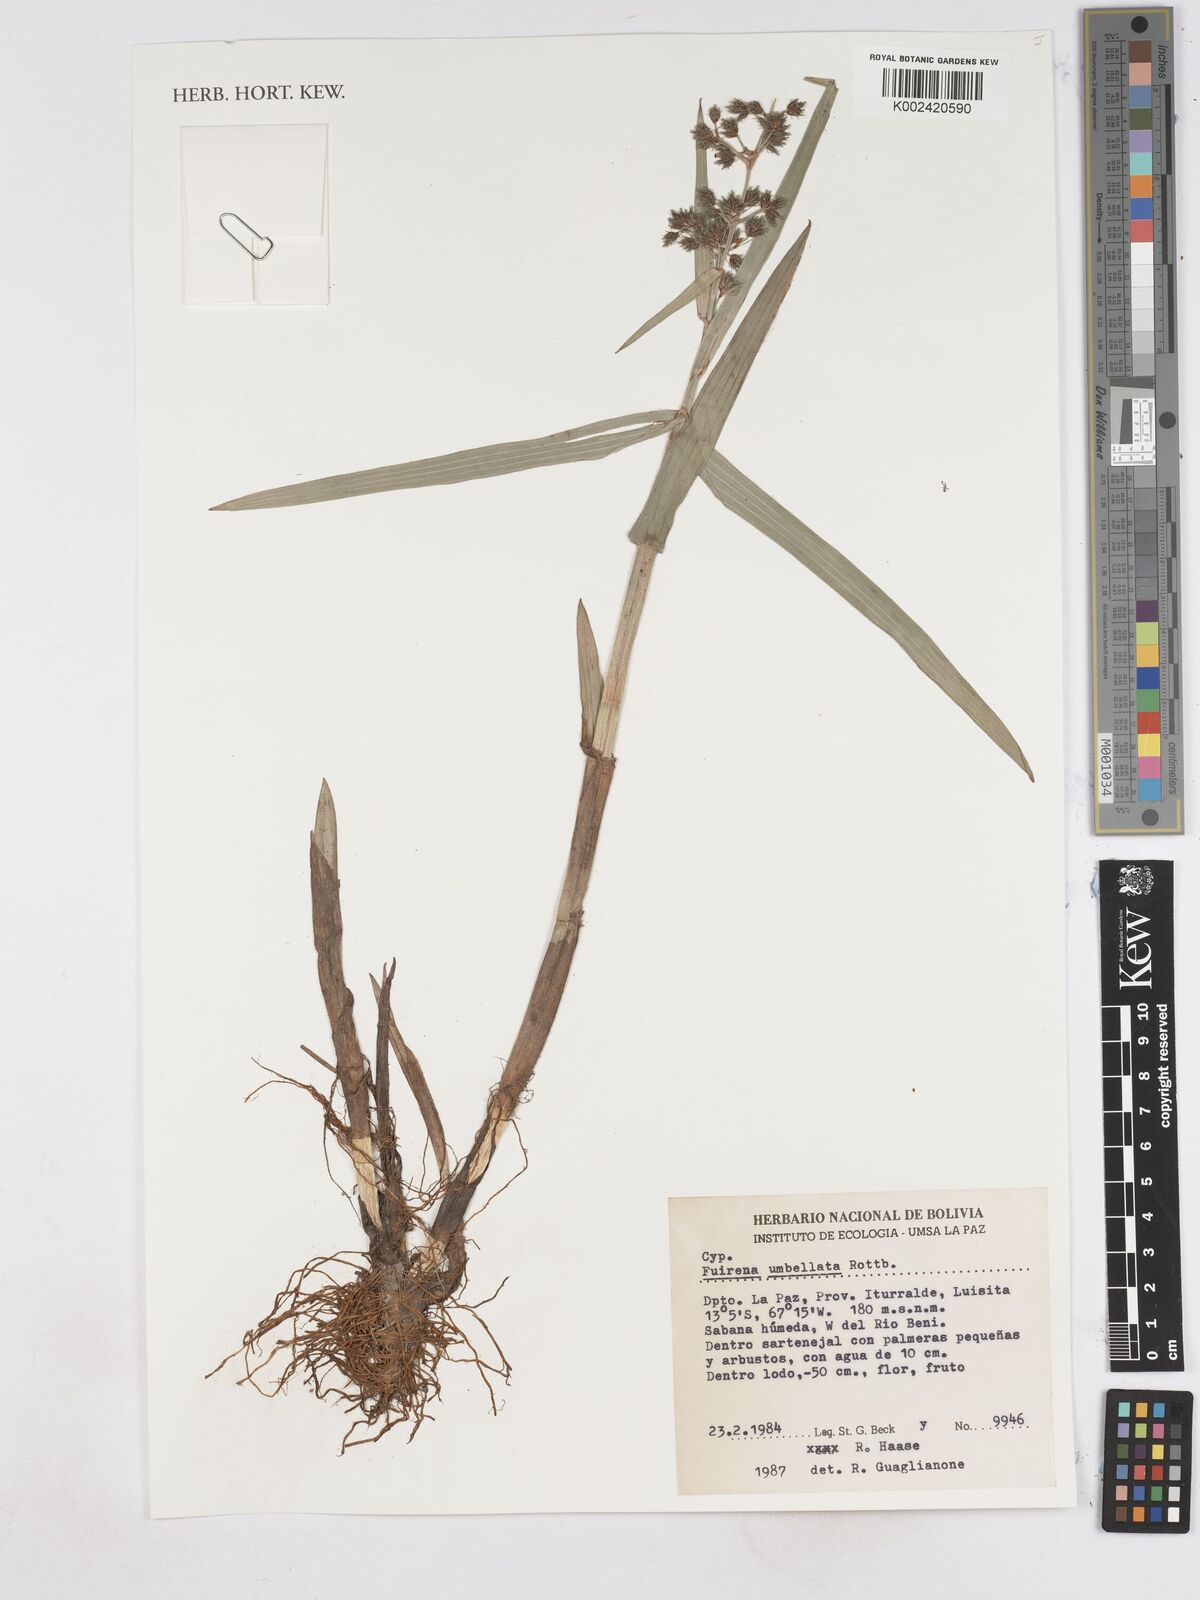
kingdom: Plantae
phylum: Tracheophyta
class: Liliopsida
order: Poales
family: Cyperaceae
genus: Fuirena
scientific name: Fuirena umbellata
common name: Yefen
